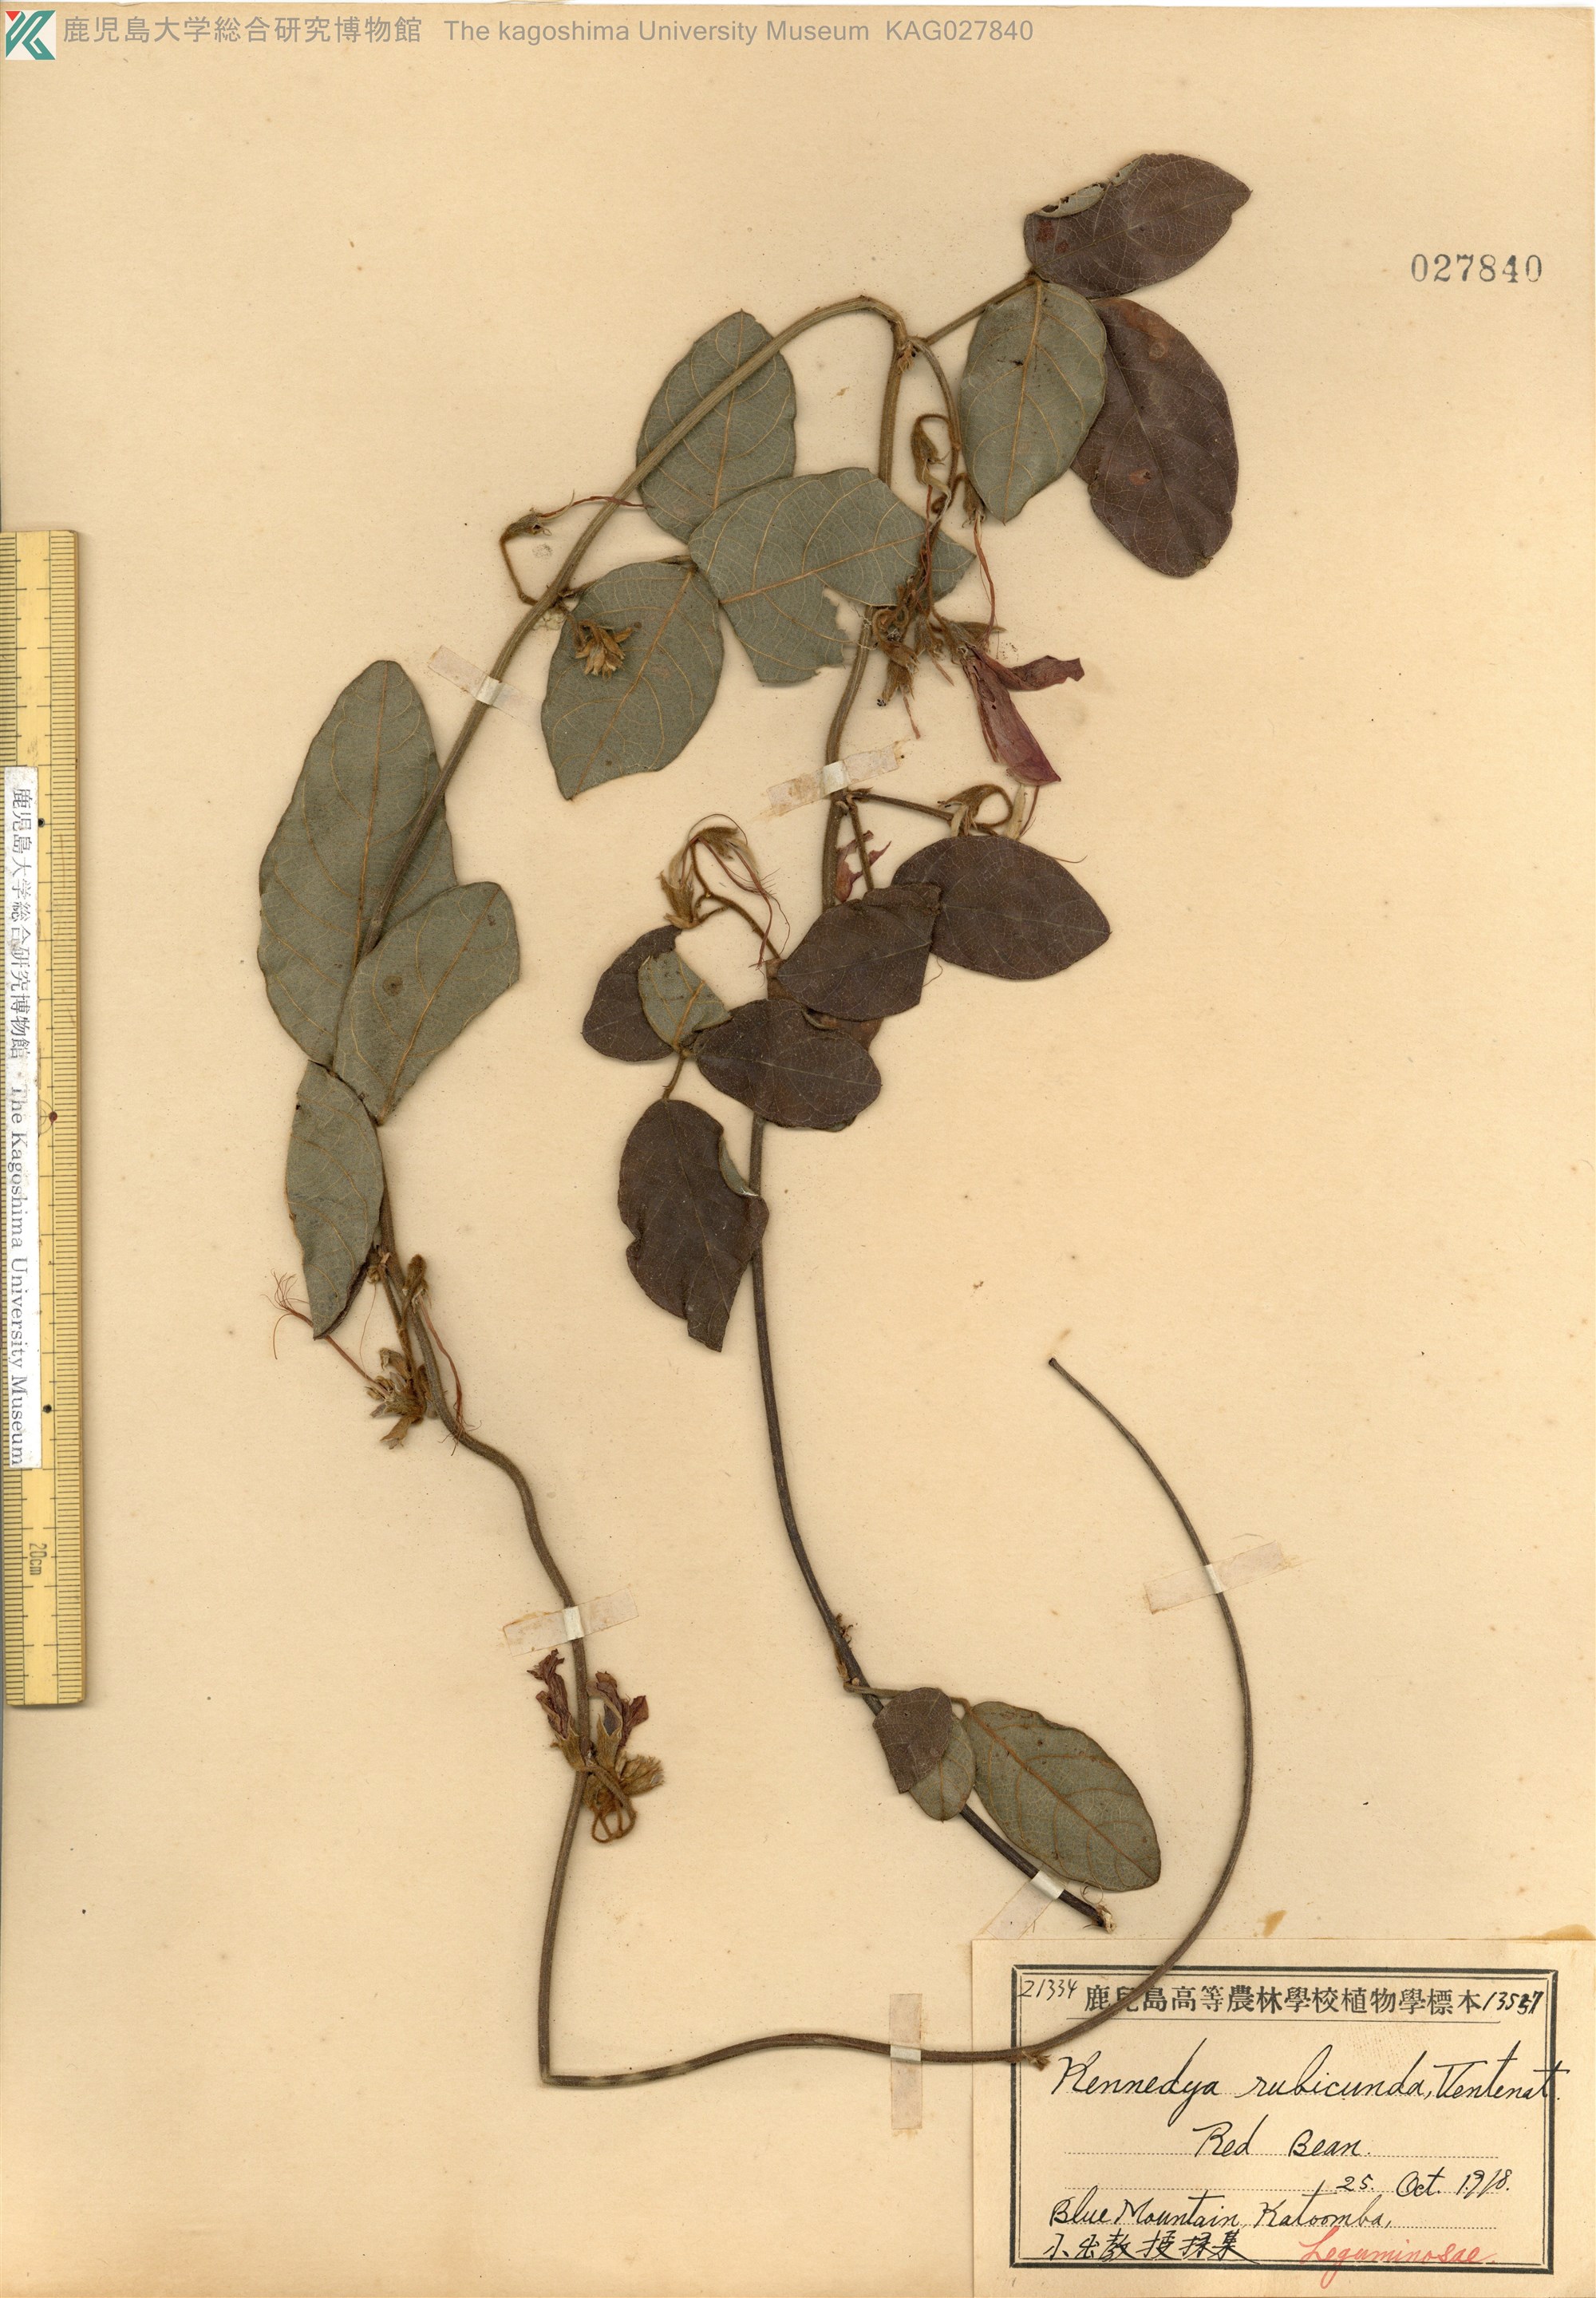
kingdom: Plantae
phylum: Tracheophyta
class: Magnoliopsida
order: Fabales
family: Fabaceae
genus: Kennedia
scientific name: Kennedia rubicunda
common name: Red kennedy-pea
